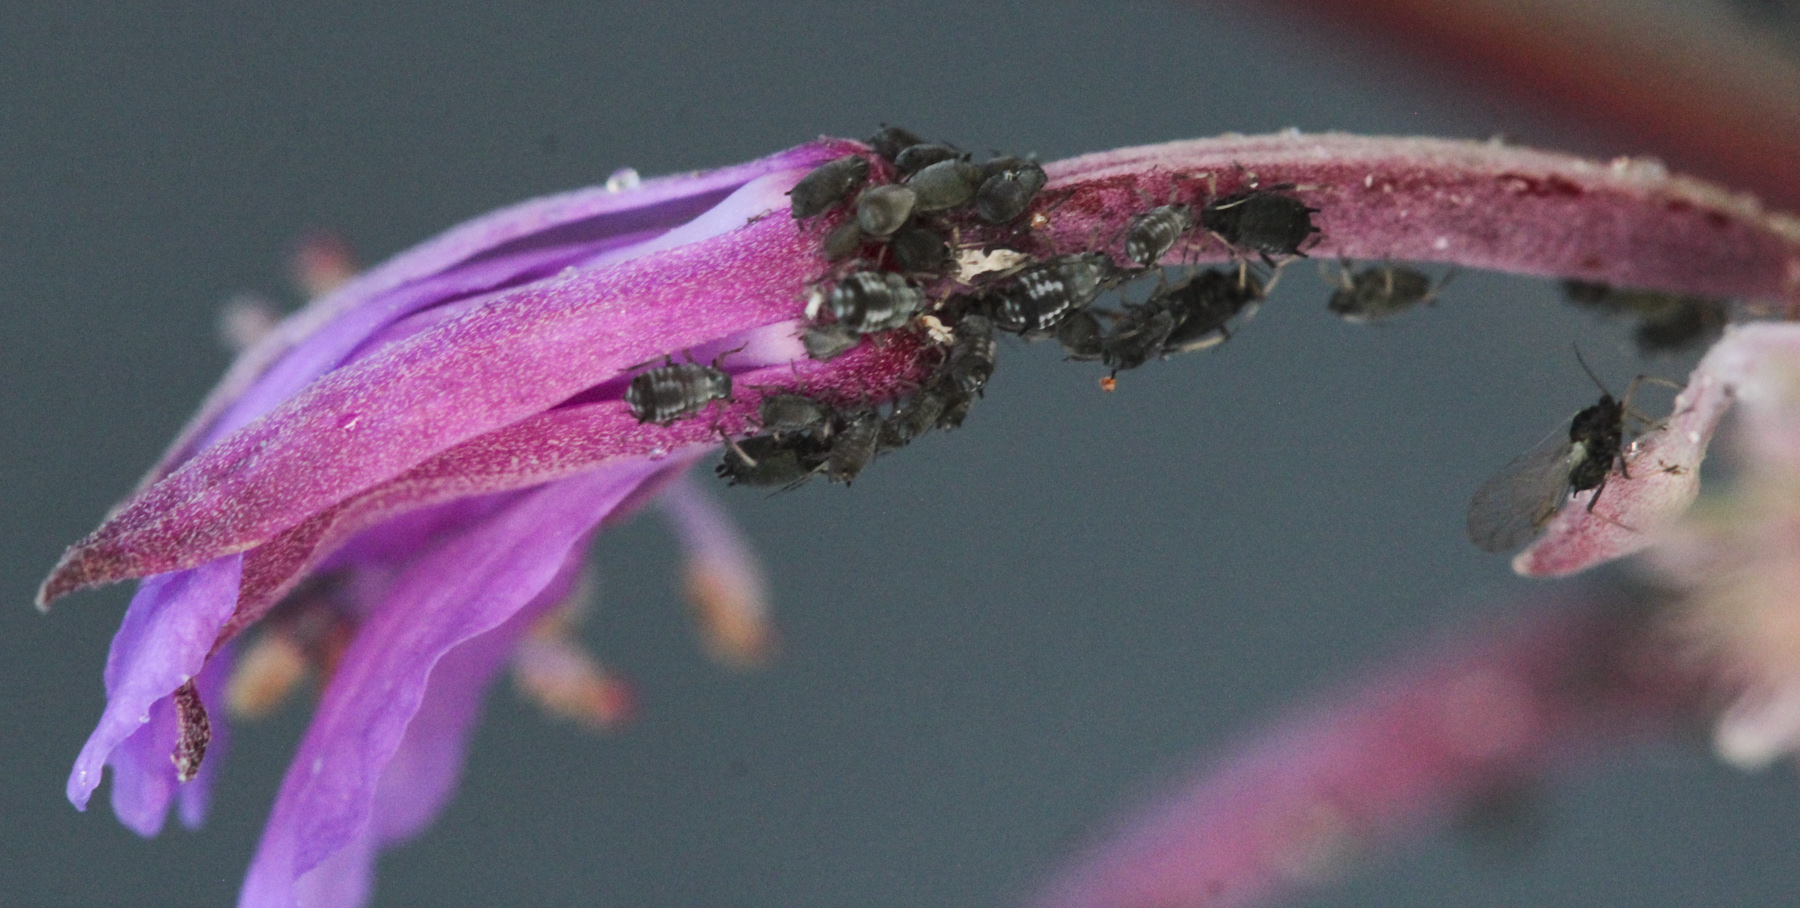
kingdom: Animalia
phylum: Arthropoda
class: Insecta
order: Hemiptera
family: Aphididae
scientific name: Aphididae
